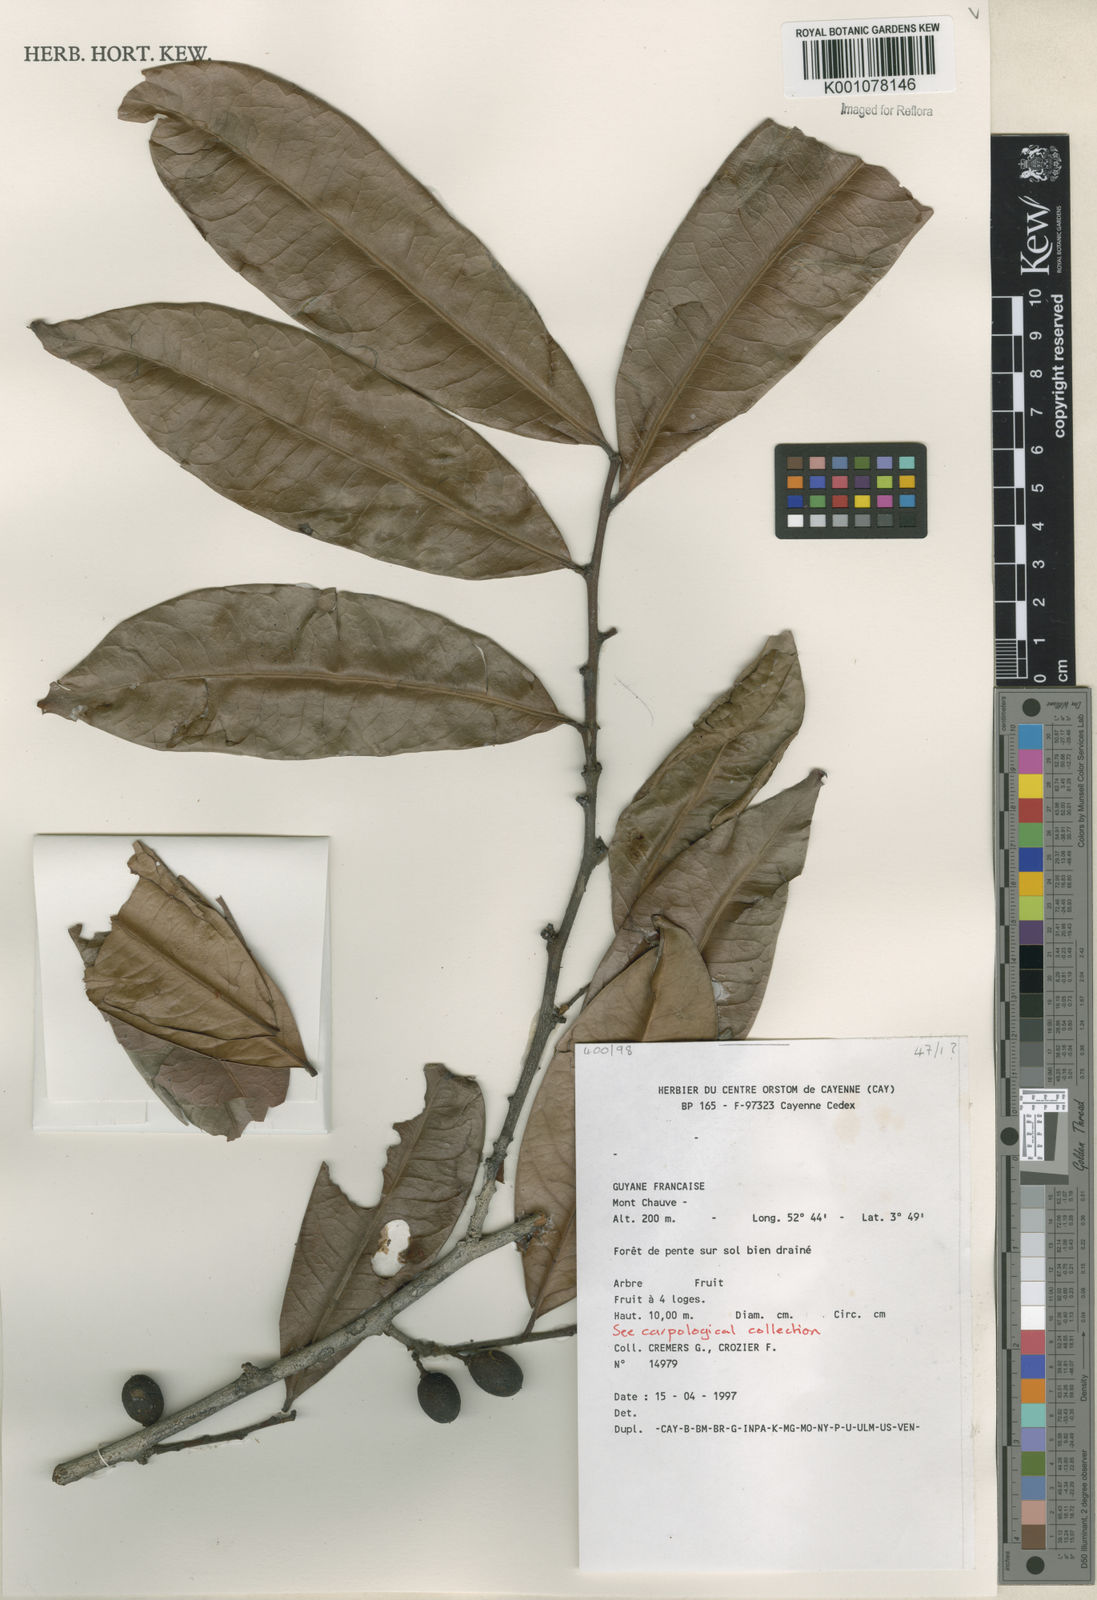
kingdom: Plantae
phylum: Tracheophyta
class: Magnoliopsida
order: Celastrales
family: Celastraceae
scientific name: Celastraceae
